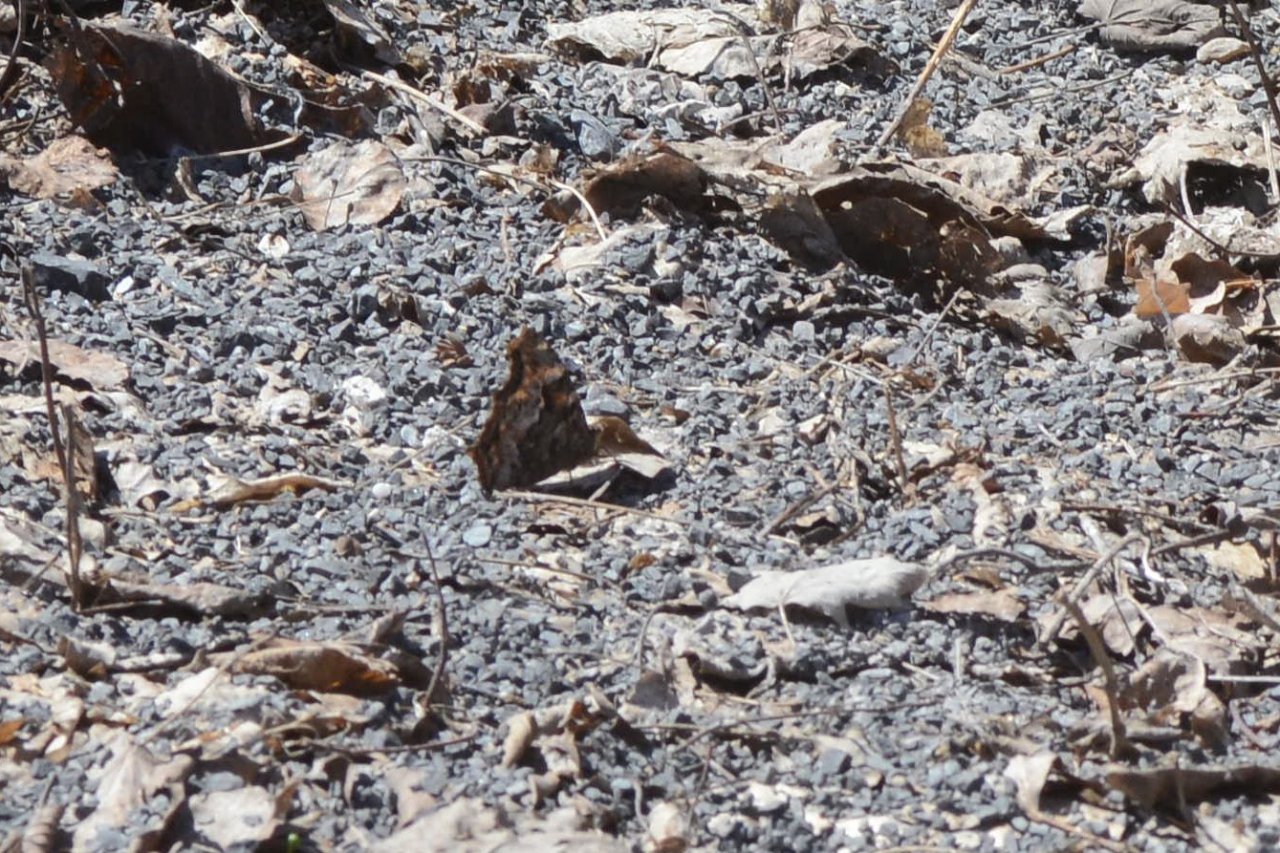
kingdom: Animalia
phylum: Arthropoda
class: Insecta
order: Lepidoptera
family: Nymphalidae
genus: Polygonia
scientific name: Polygonia vaualbum
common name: Compton Tortoiseshell
